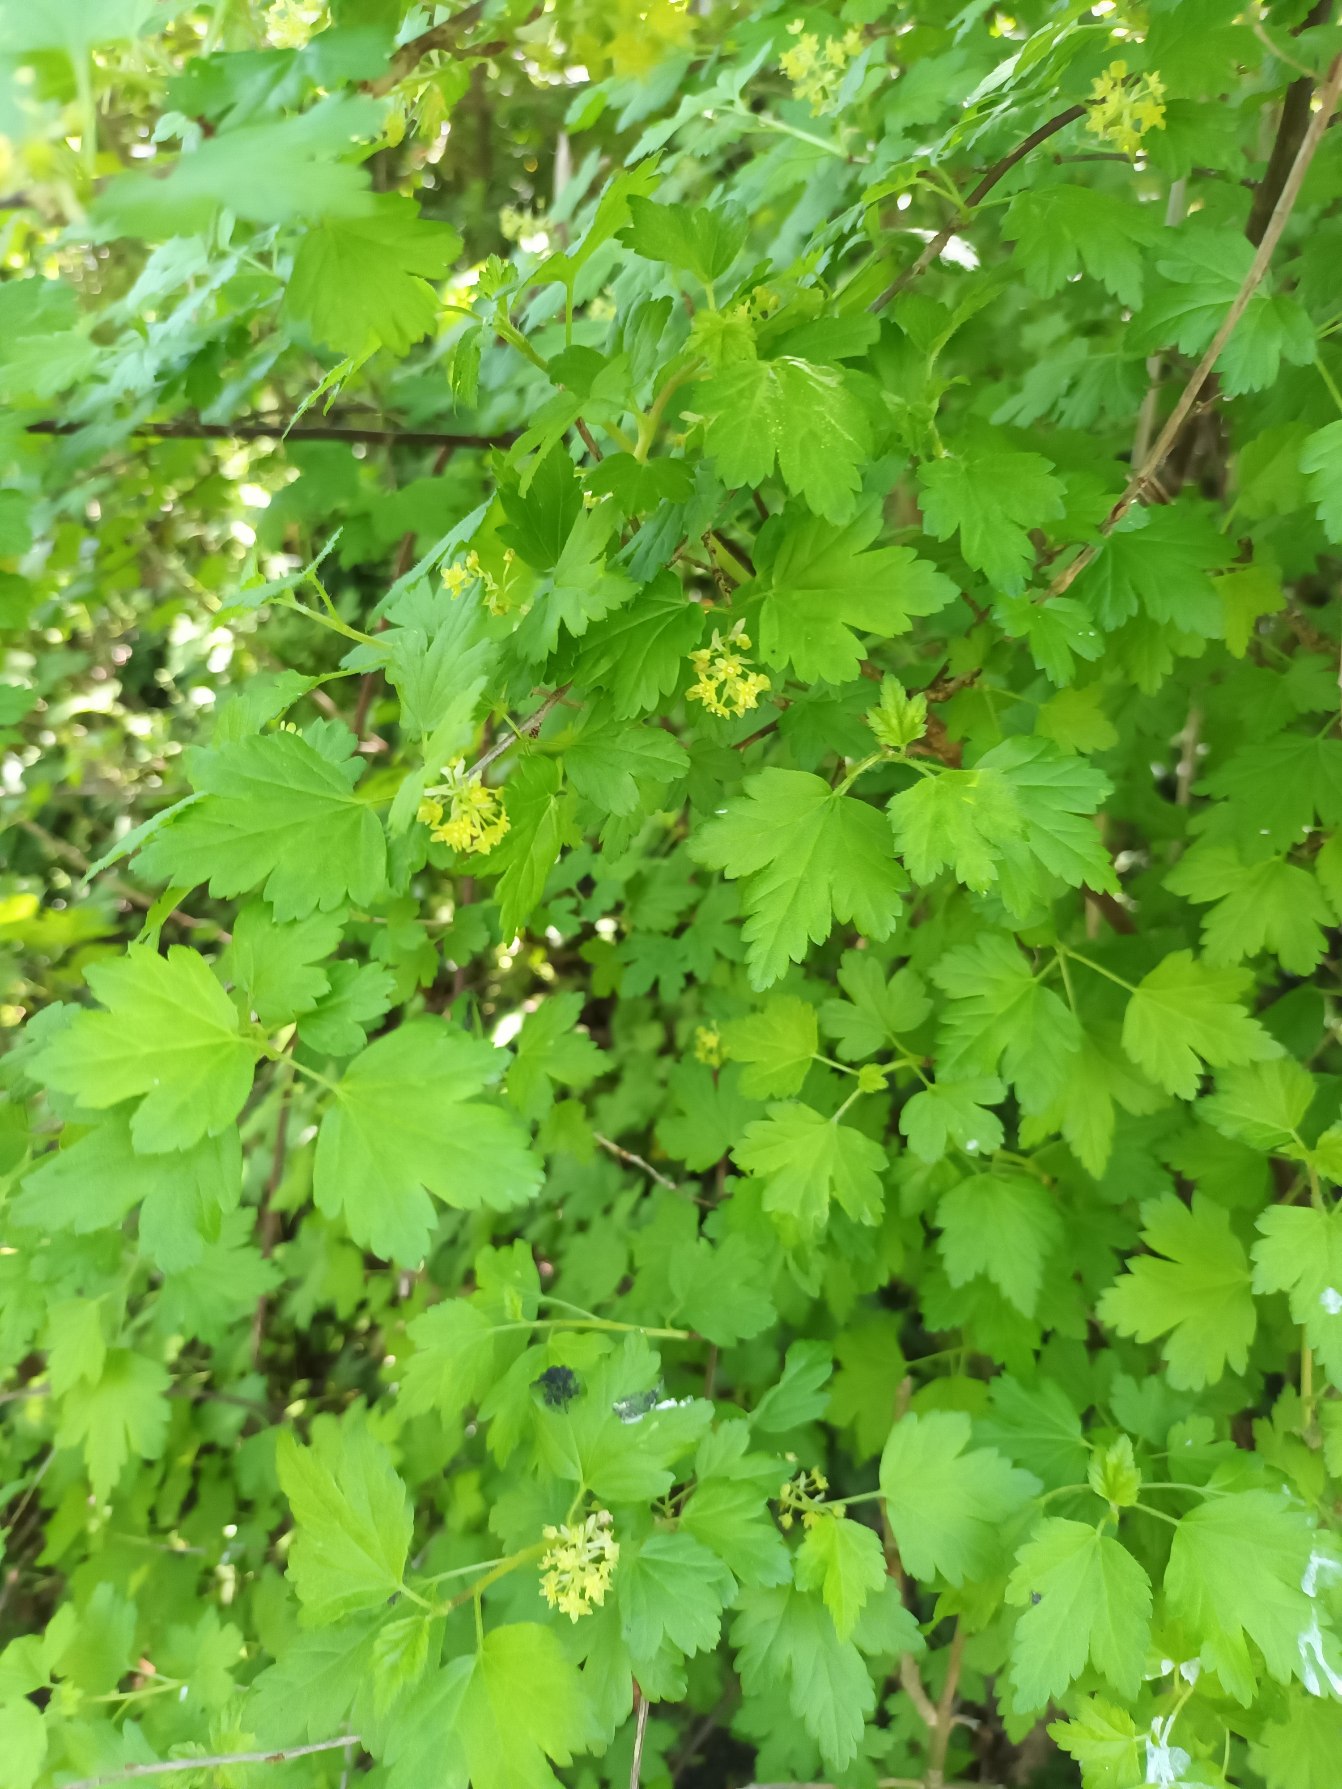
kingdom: Plantae
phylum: Tracheophyta
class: Magnoliopsida
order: Saxifragales
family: Grossulariaceae
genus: Ribes
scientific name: Ribes alpinum
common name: Fjeld-ribs
